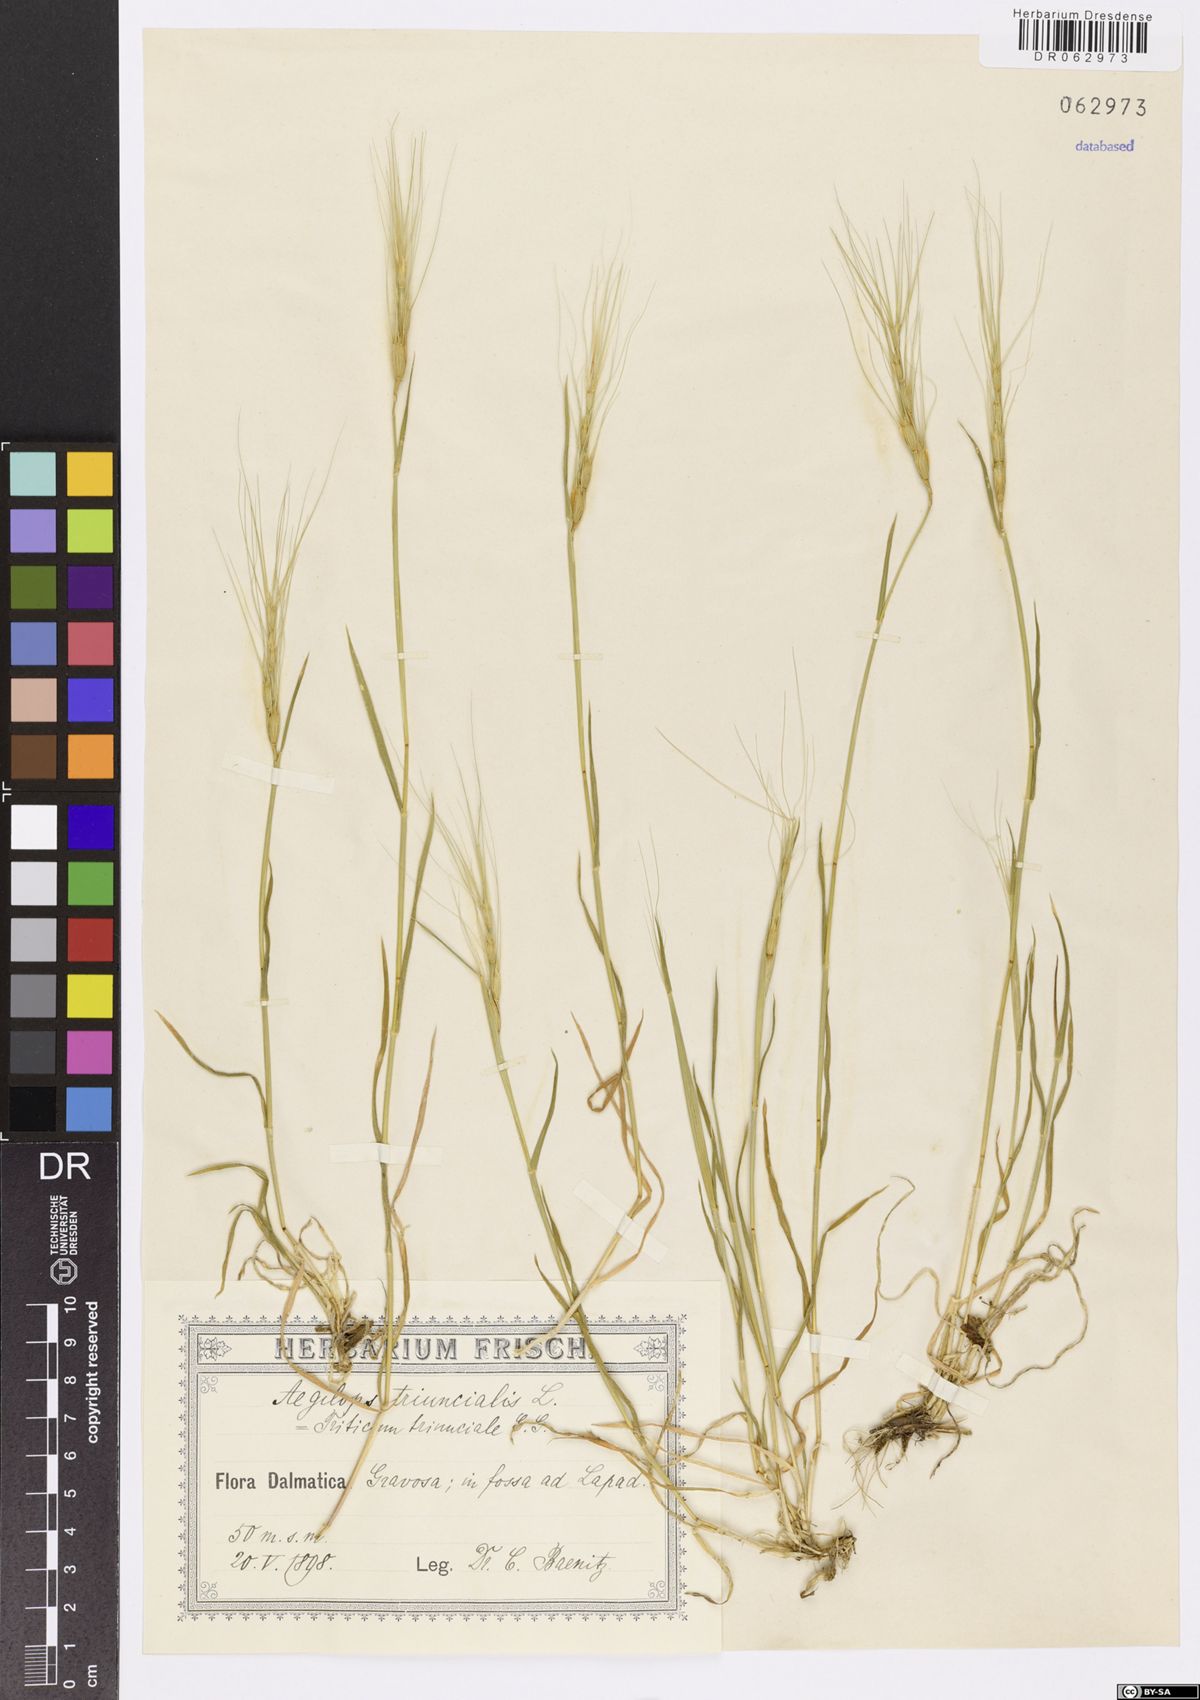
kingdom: Plantae
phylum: Tracheophyta
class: Liliopsida
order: Poales
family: Poaceae
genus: Aegilops
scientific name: Aegilops triuncialis
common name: Barb goat grass
